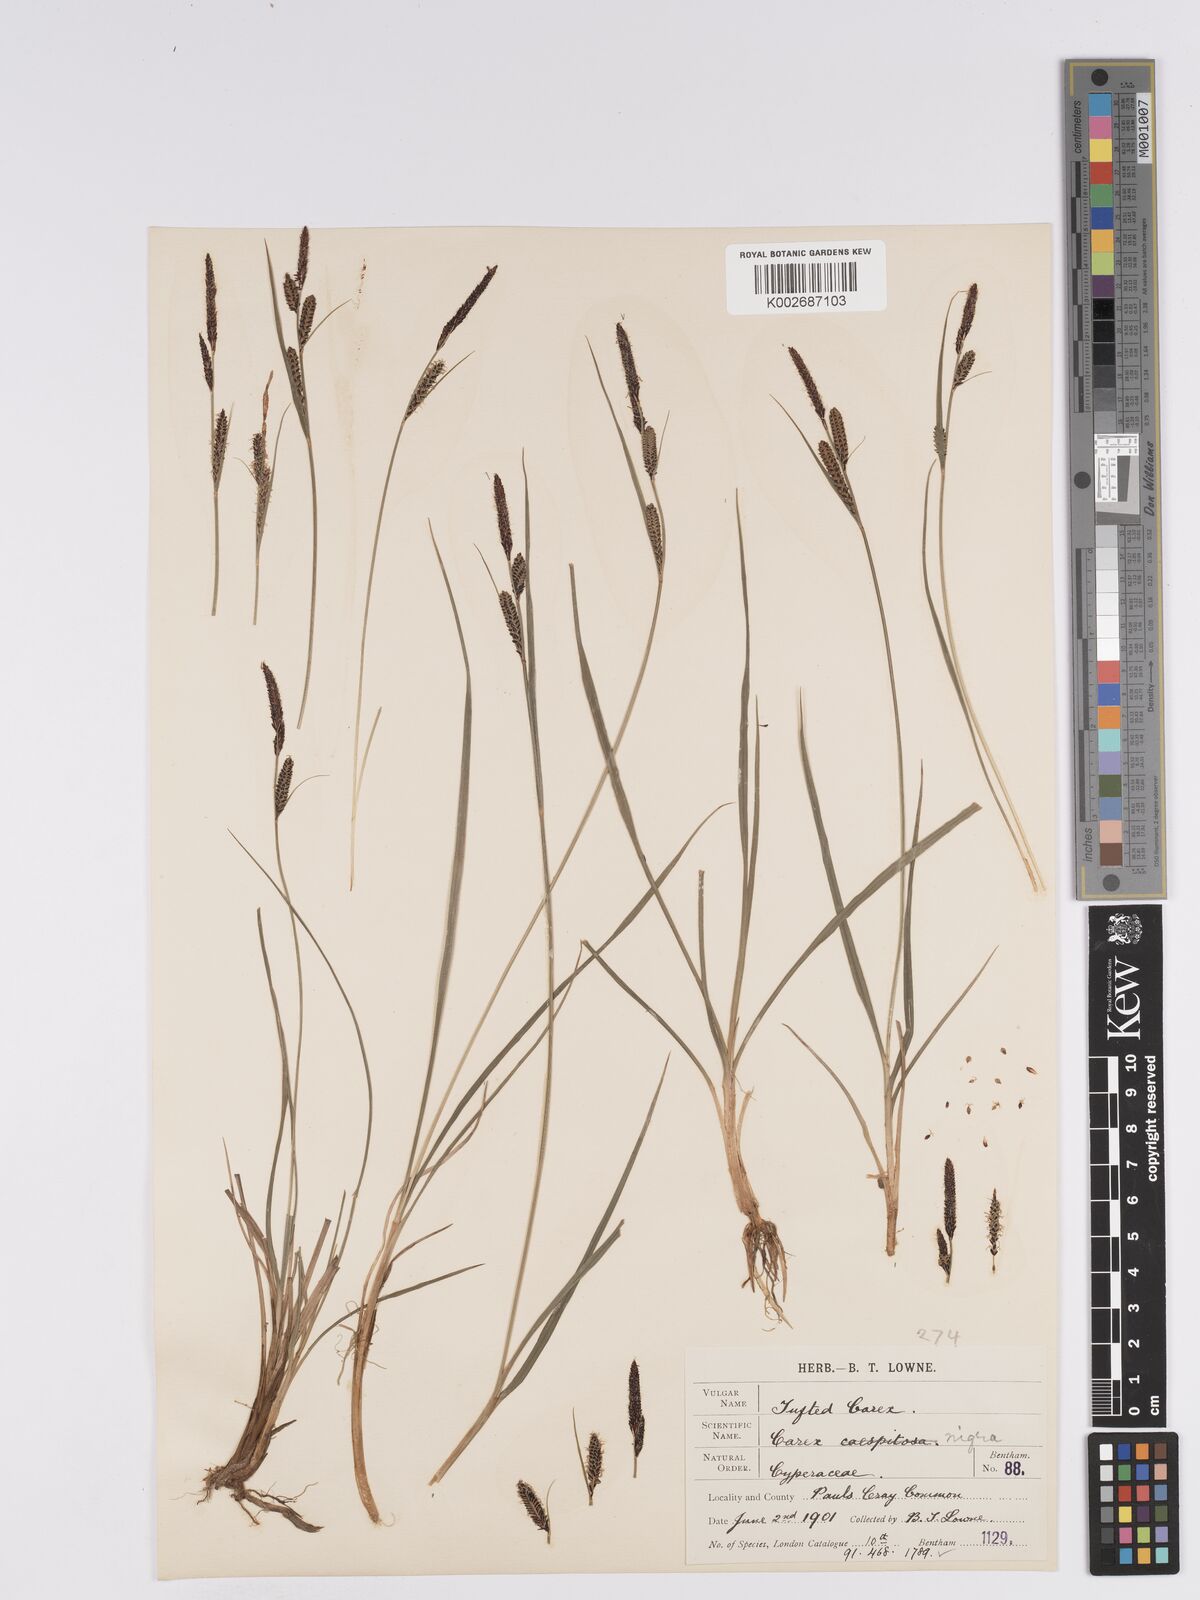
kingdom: Plantae
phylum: Tracheophyta
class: Liliopsida
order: Poales
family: Cyperaceae
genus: Carex
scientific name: Carex nigra
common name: Common sedge
